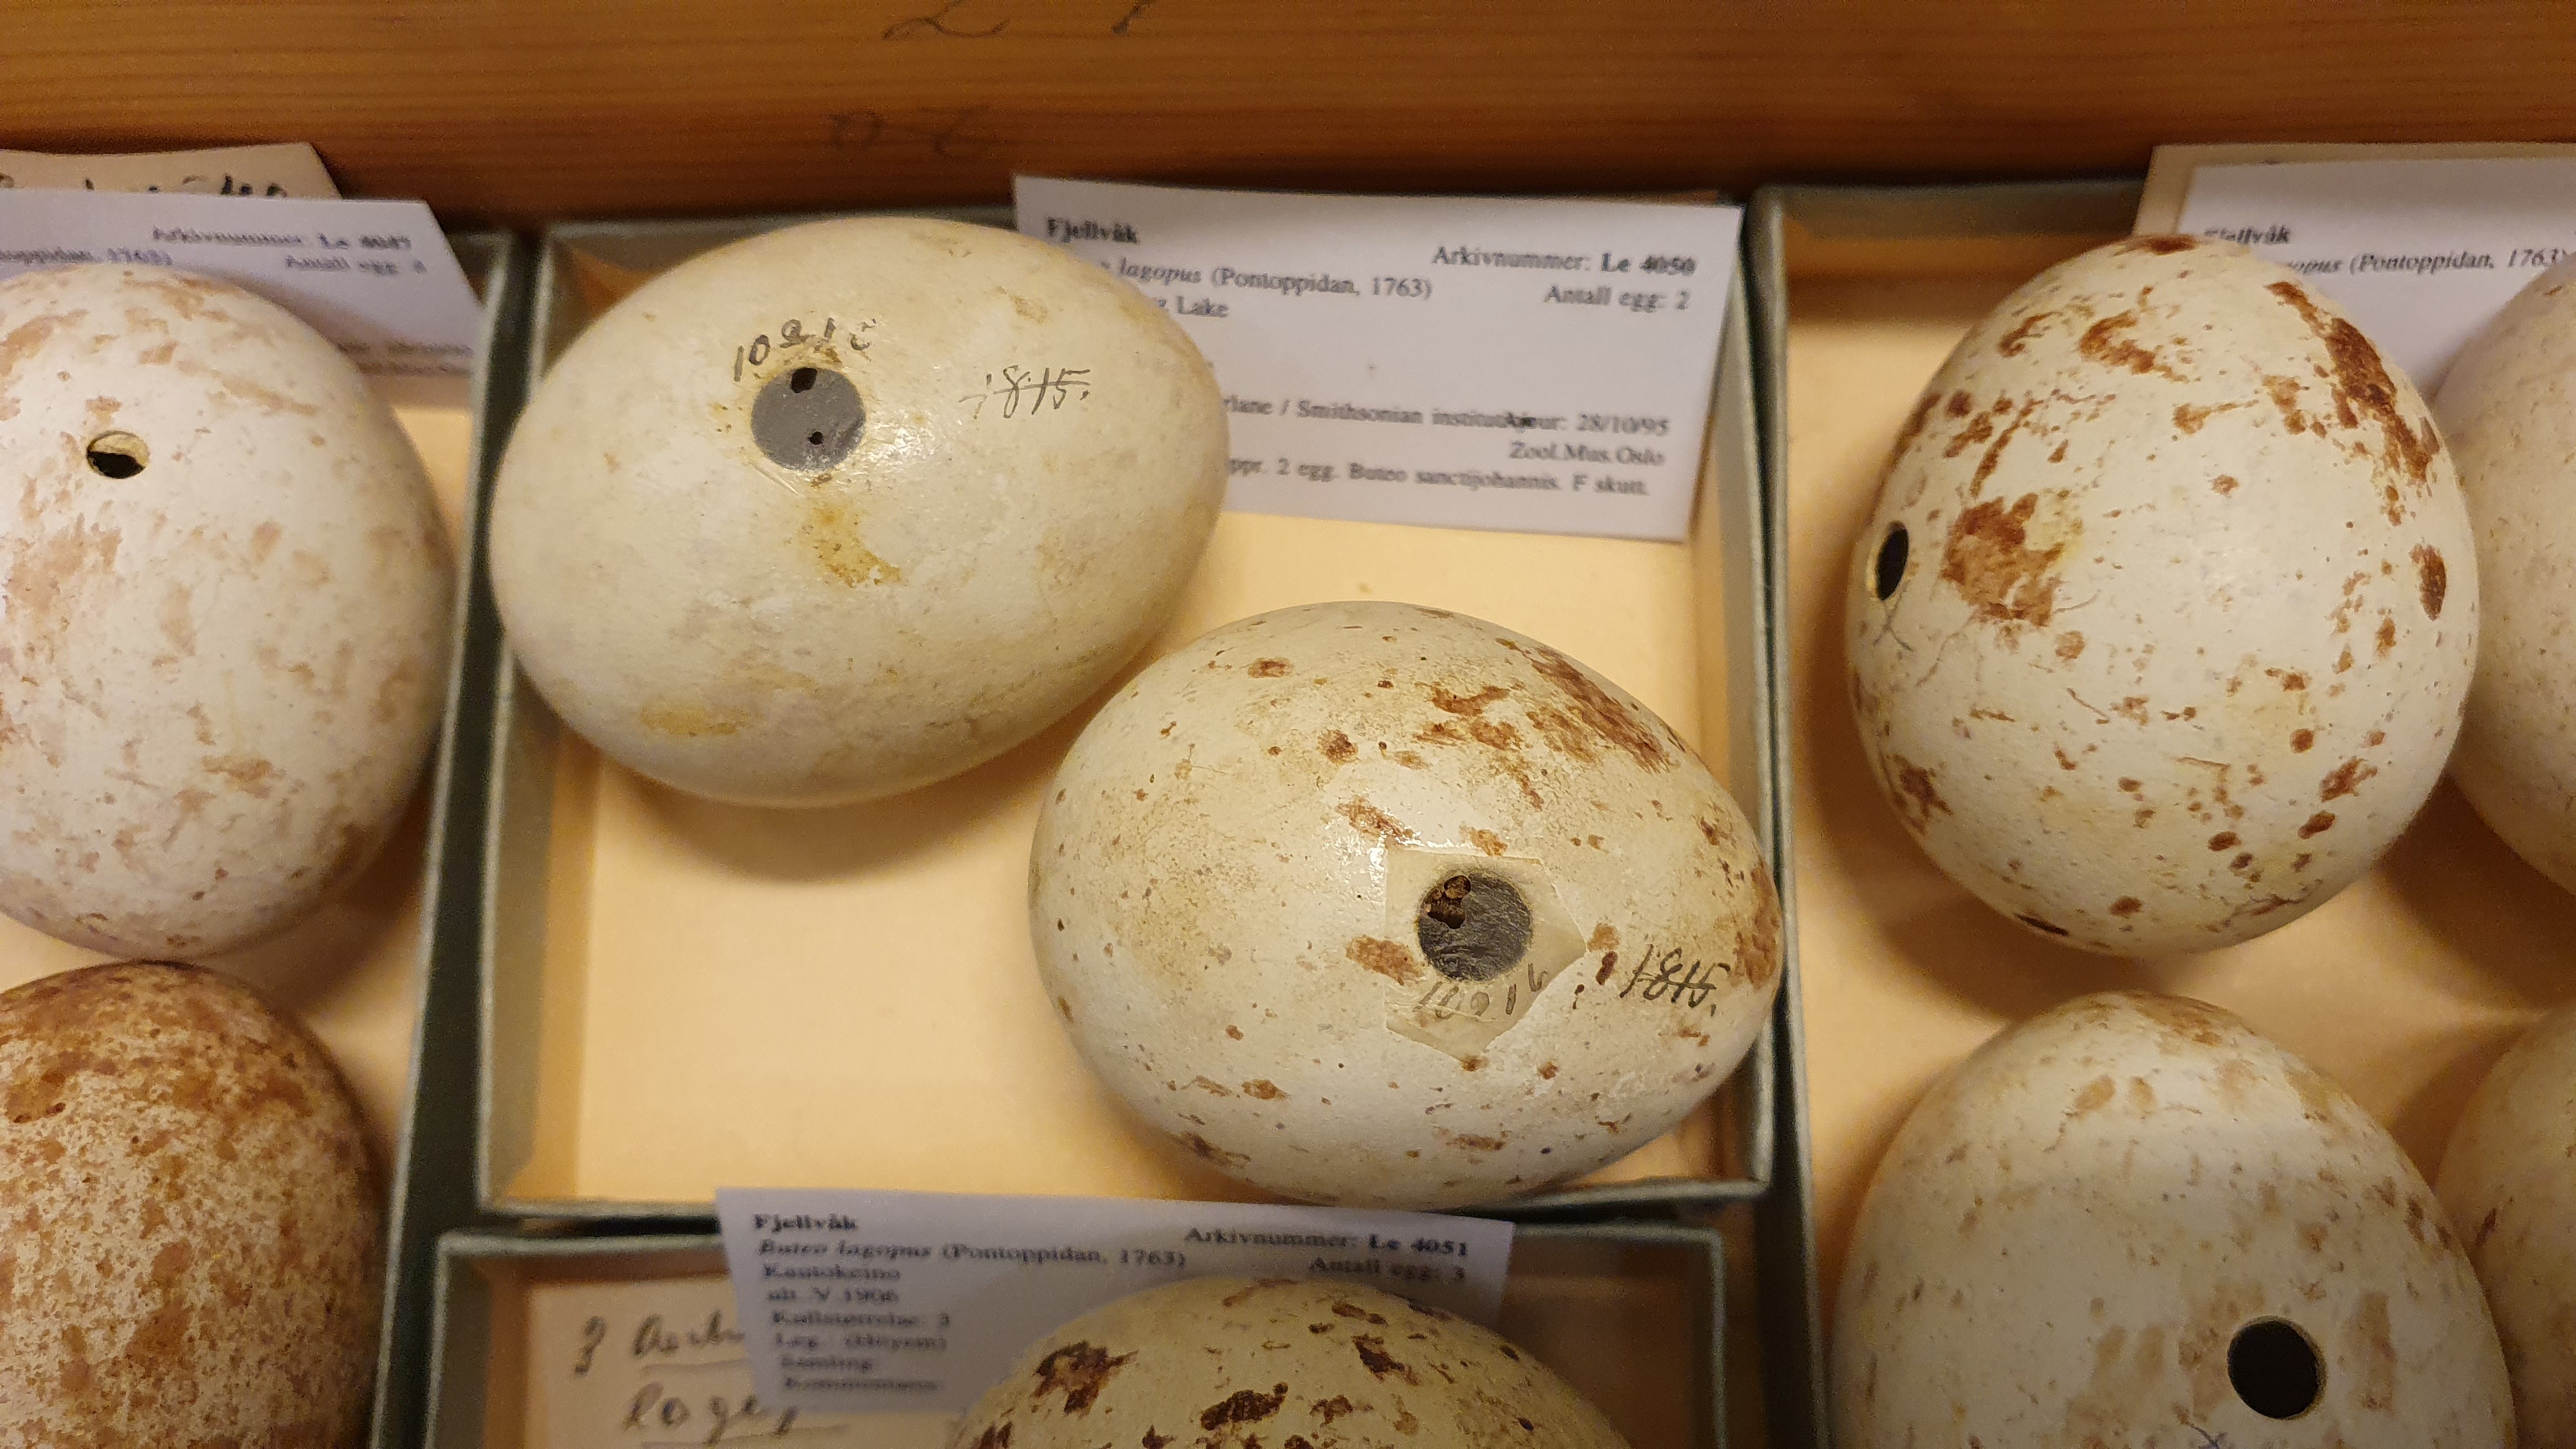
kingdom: Animalia
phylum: Chordata
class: Aves
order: Accipitriformes
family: Accipitridae
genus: Buteo
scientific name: Buteo lagopus
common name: Rough-legged buzzard
